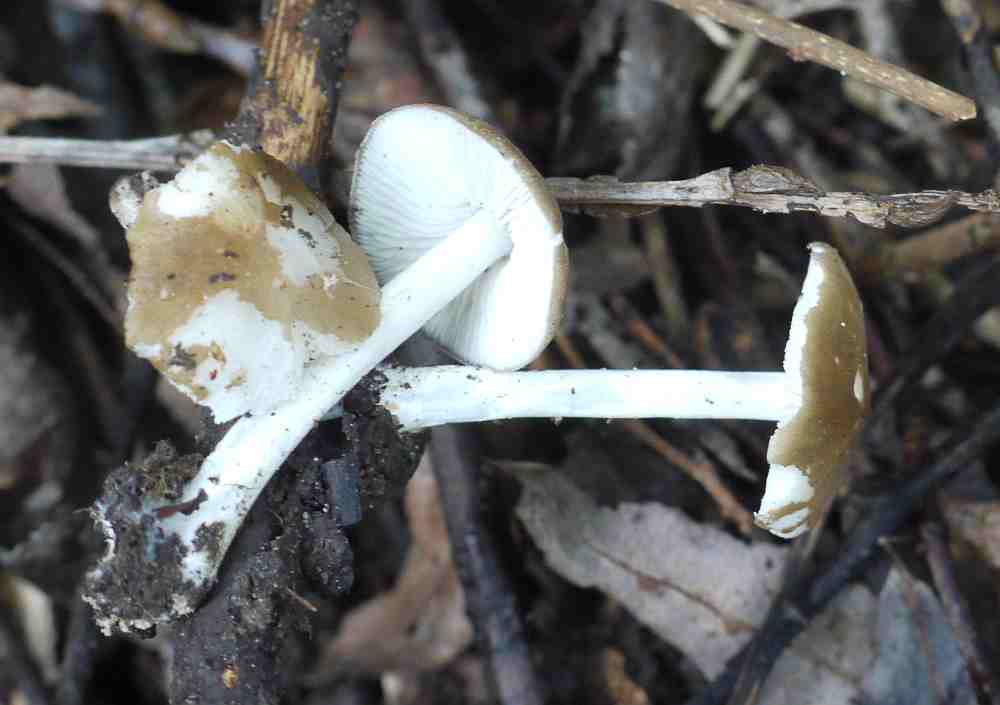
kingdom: Fungi
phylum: Basidiomycota
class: Agaricomycetes
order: Agaricales
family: Porotheleaceae
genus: Hydropodia
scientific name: Hydropodia subalpina
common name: vår-fnugfod
